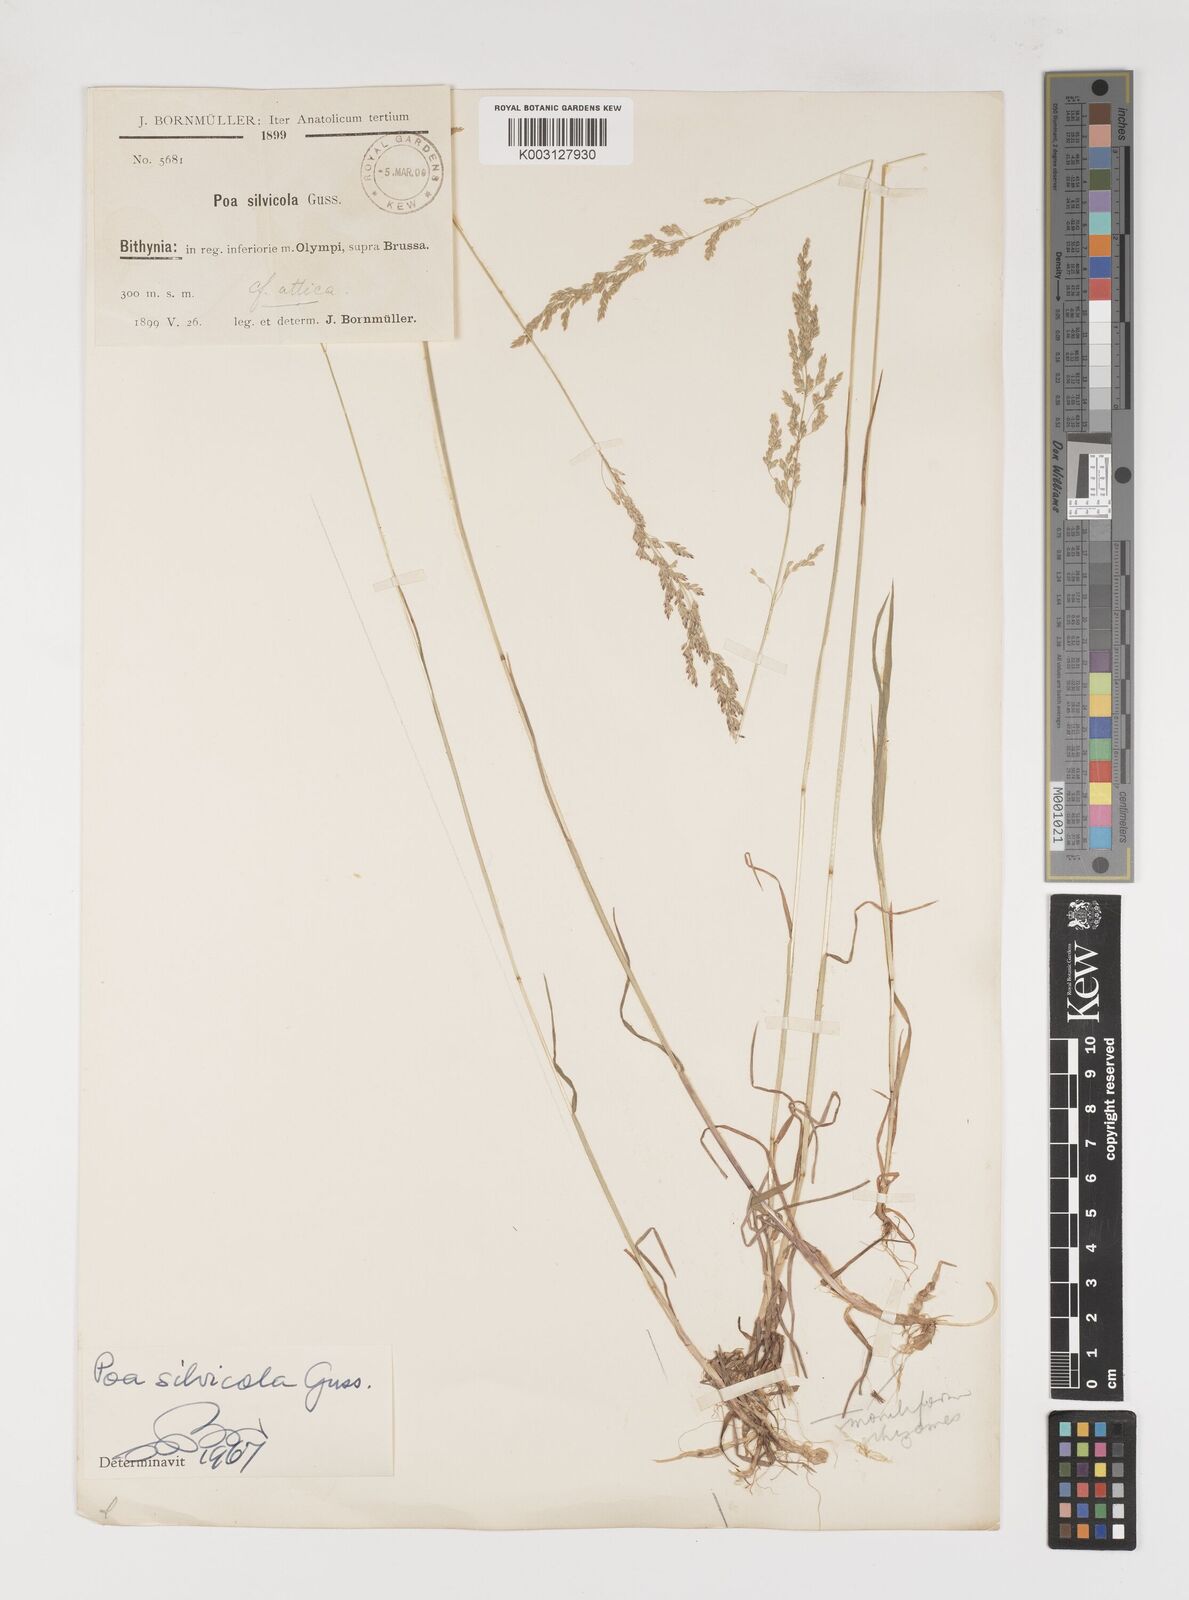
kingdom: Plantae
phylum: Tracheophyta
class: Liliopsida
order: Poales
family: Poaceae
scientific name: Poaceae
